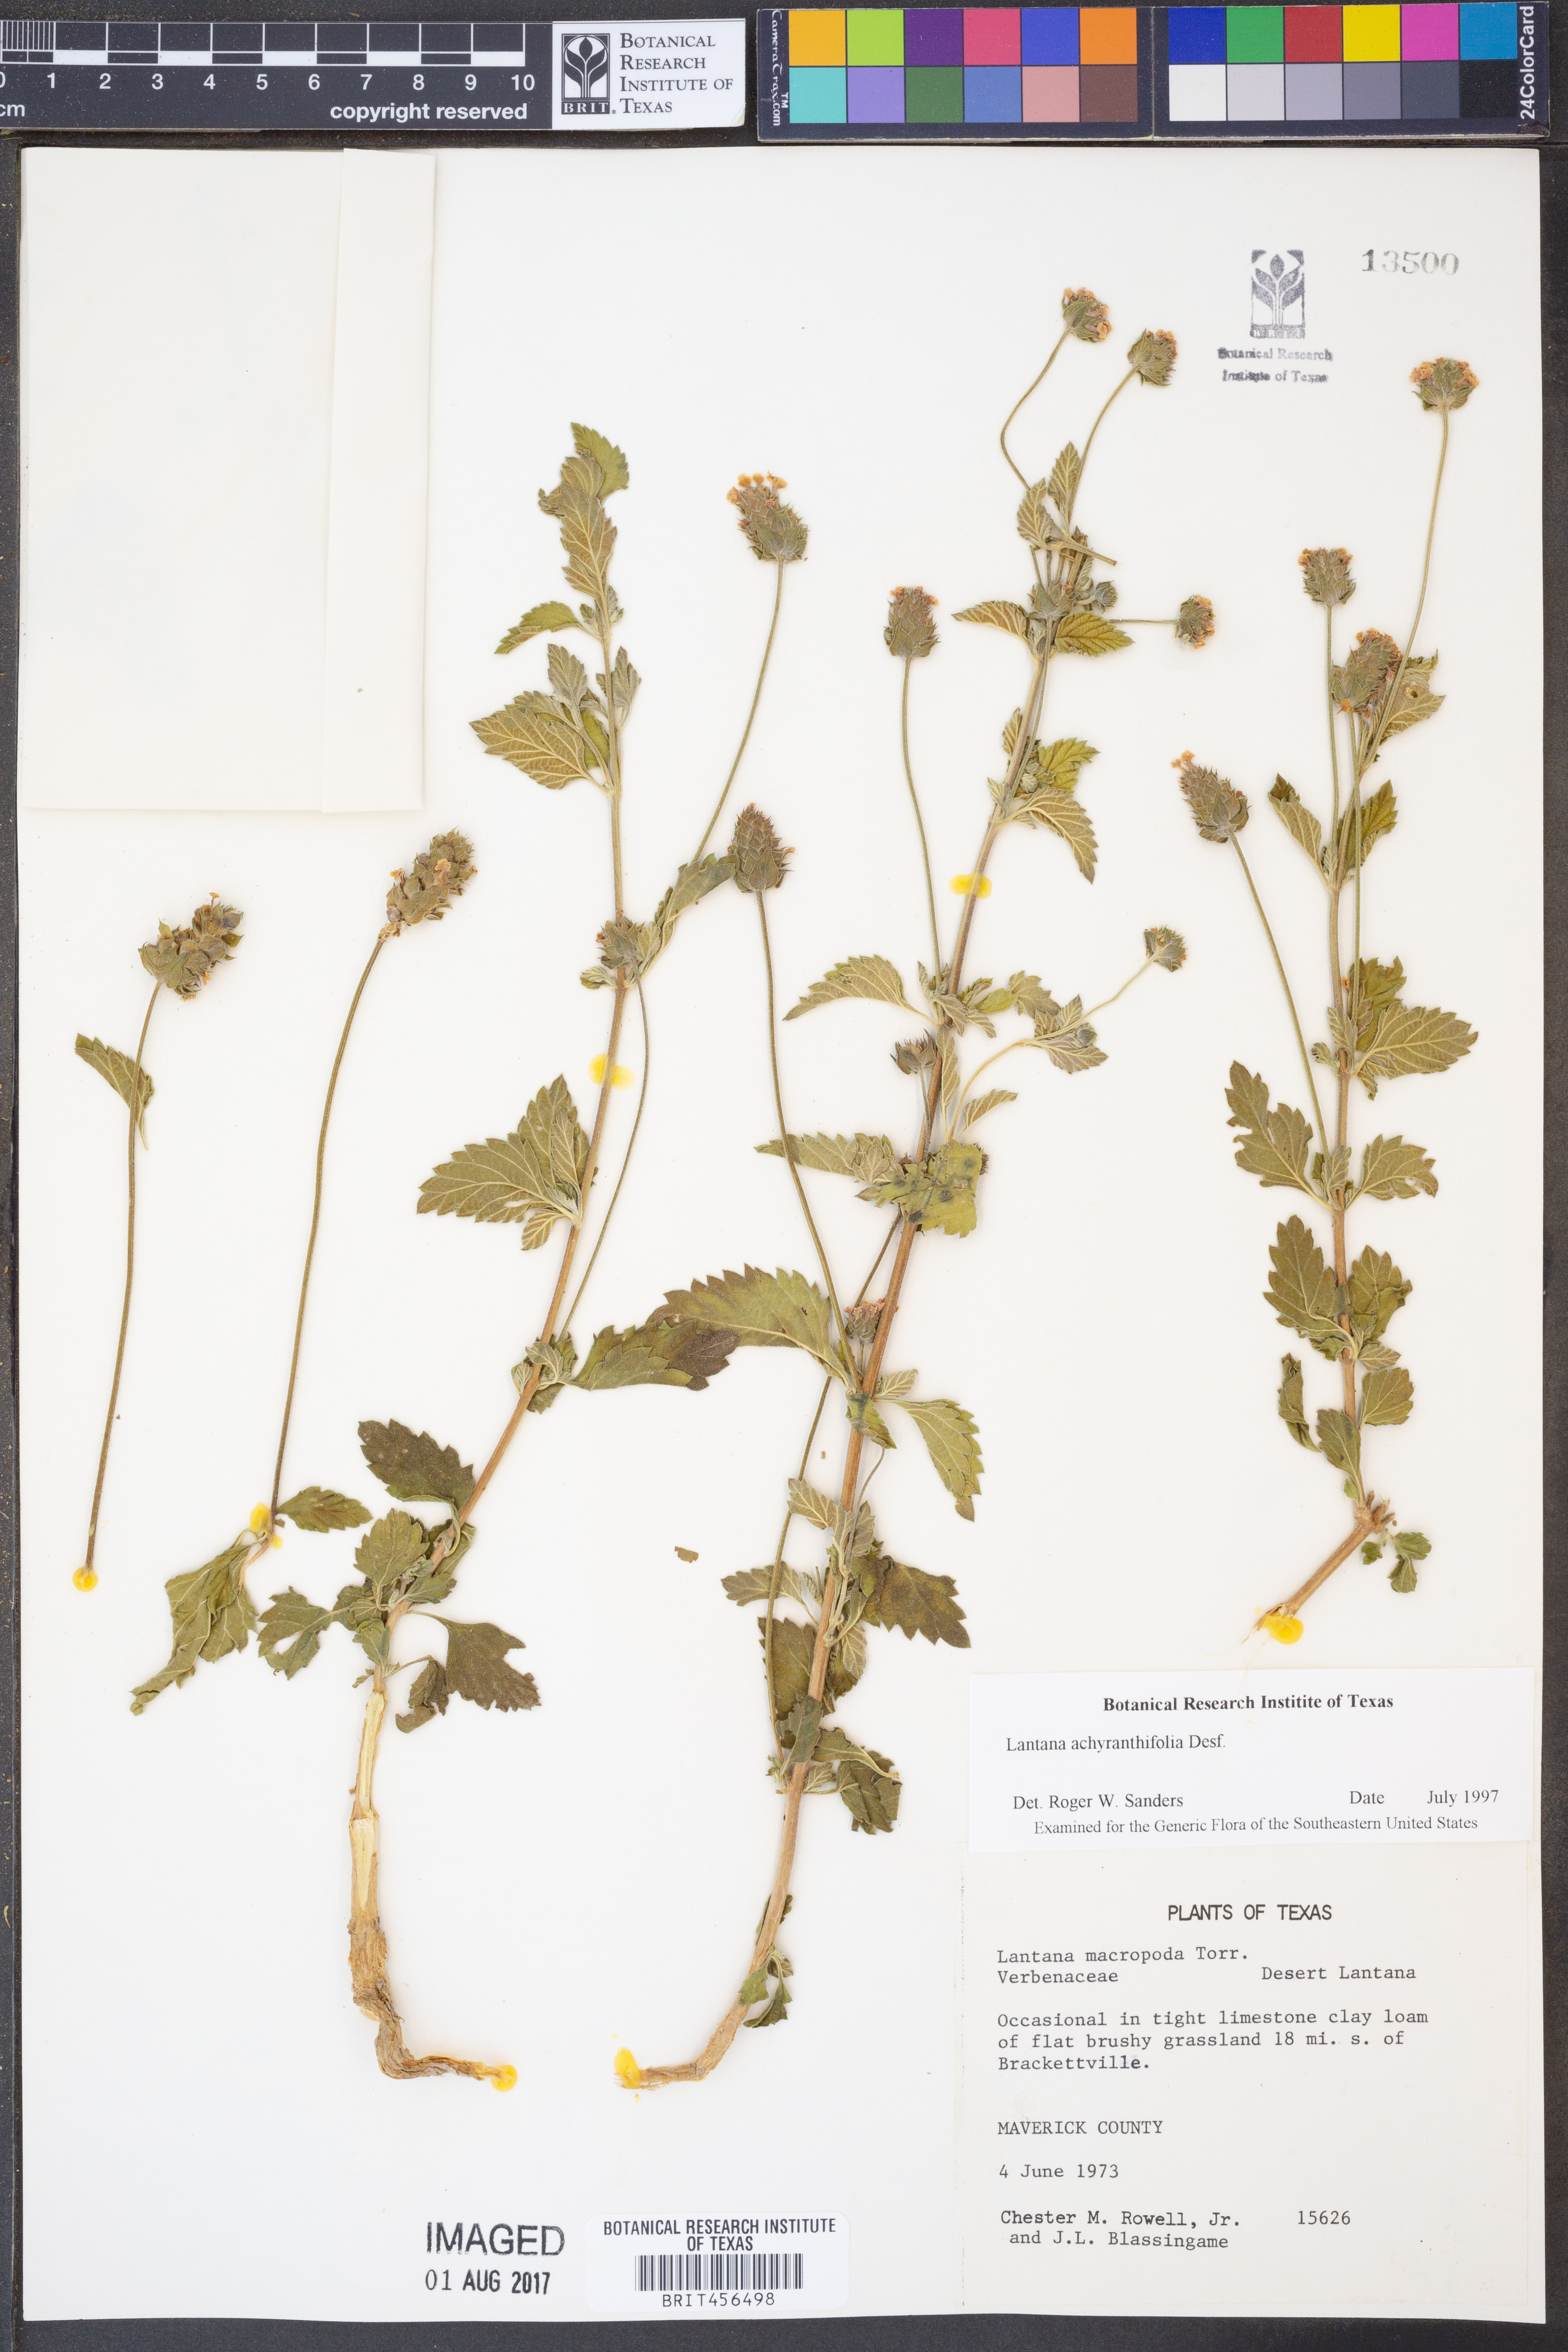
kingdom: Plantae
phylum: Tracheophyta
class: Magnoliopsida
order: Lamiales
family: Verbenaceae
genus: Lantana
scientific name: Lantana achyranthifolia
